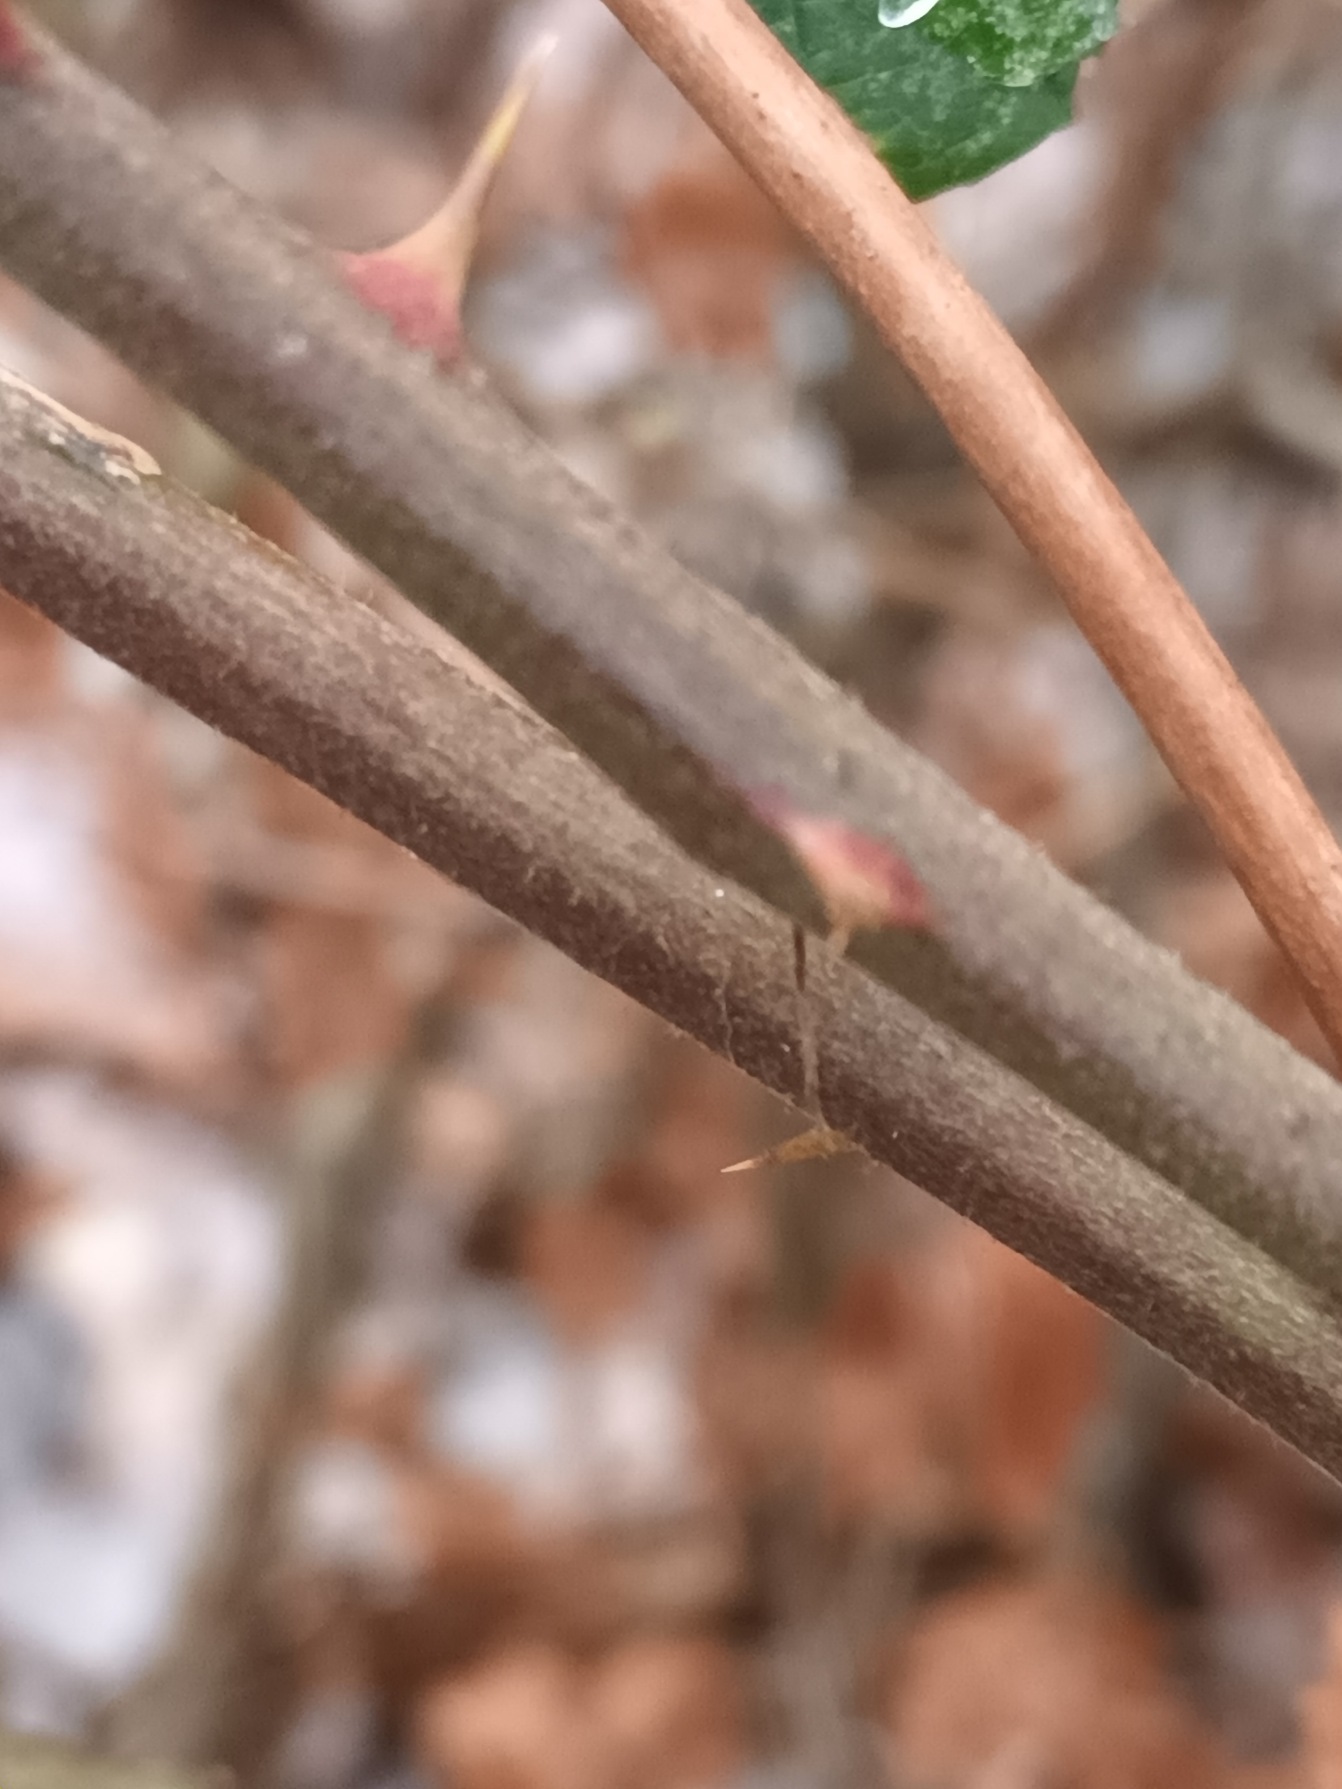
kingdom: Plantae
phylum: Tracheophyta
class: Magnoliopsida
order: Rosales
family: Rosaceae
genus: Rubus
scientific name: Rubus radula
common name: Rasperu brombær
